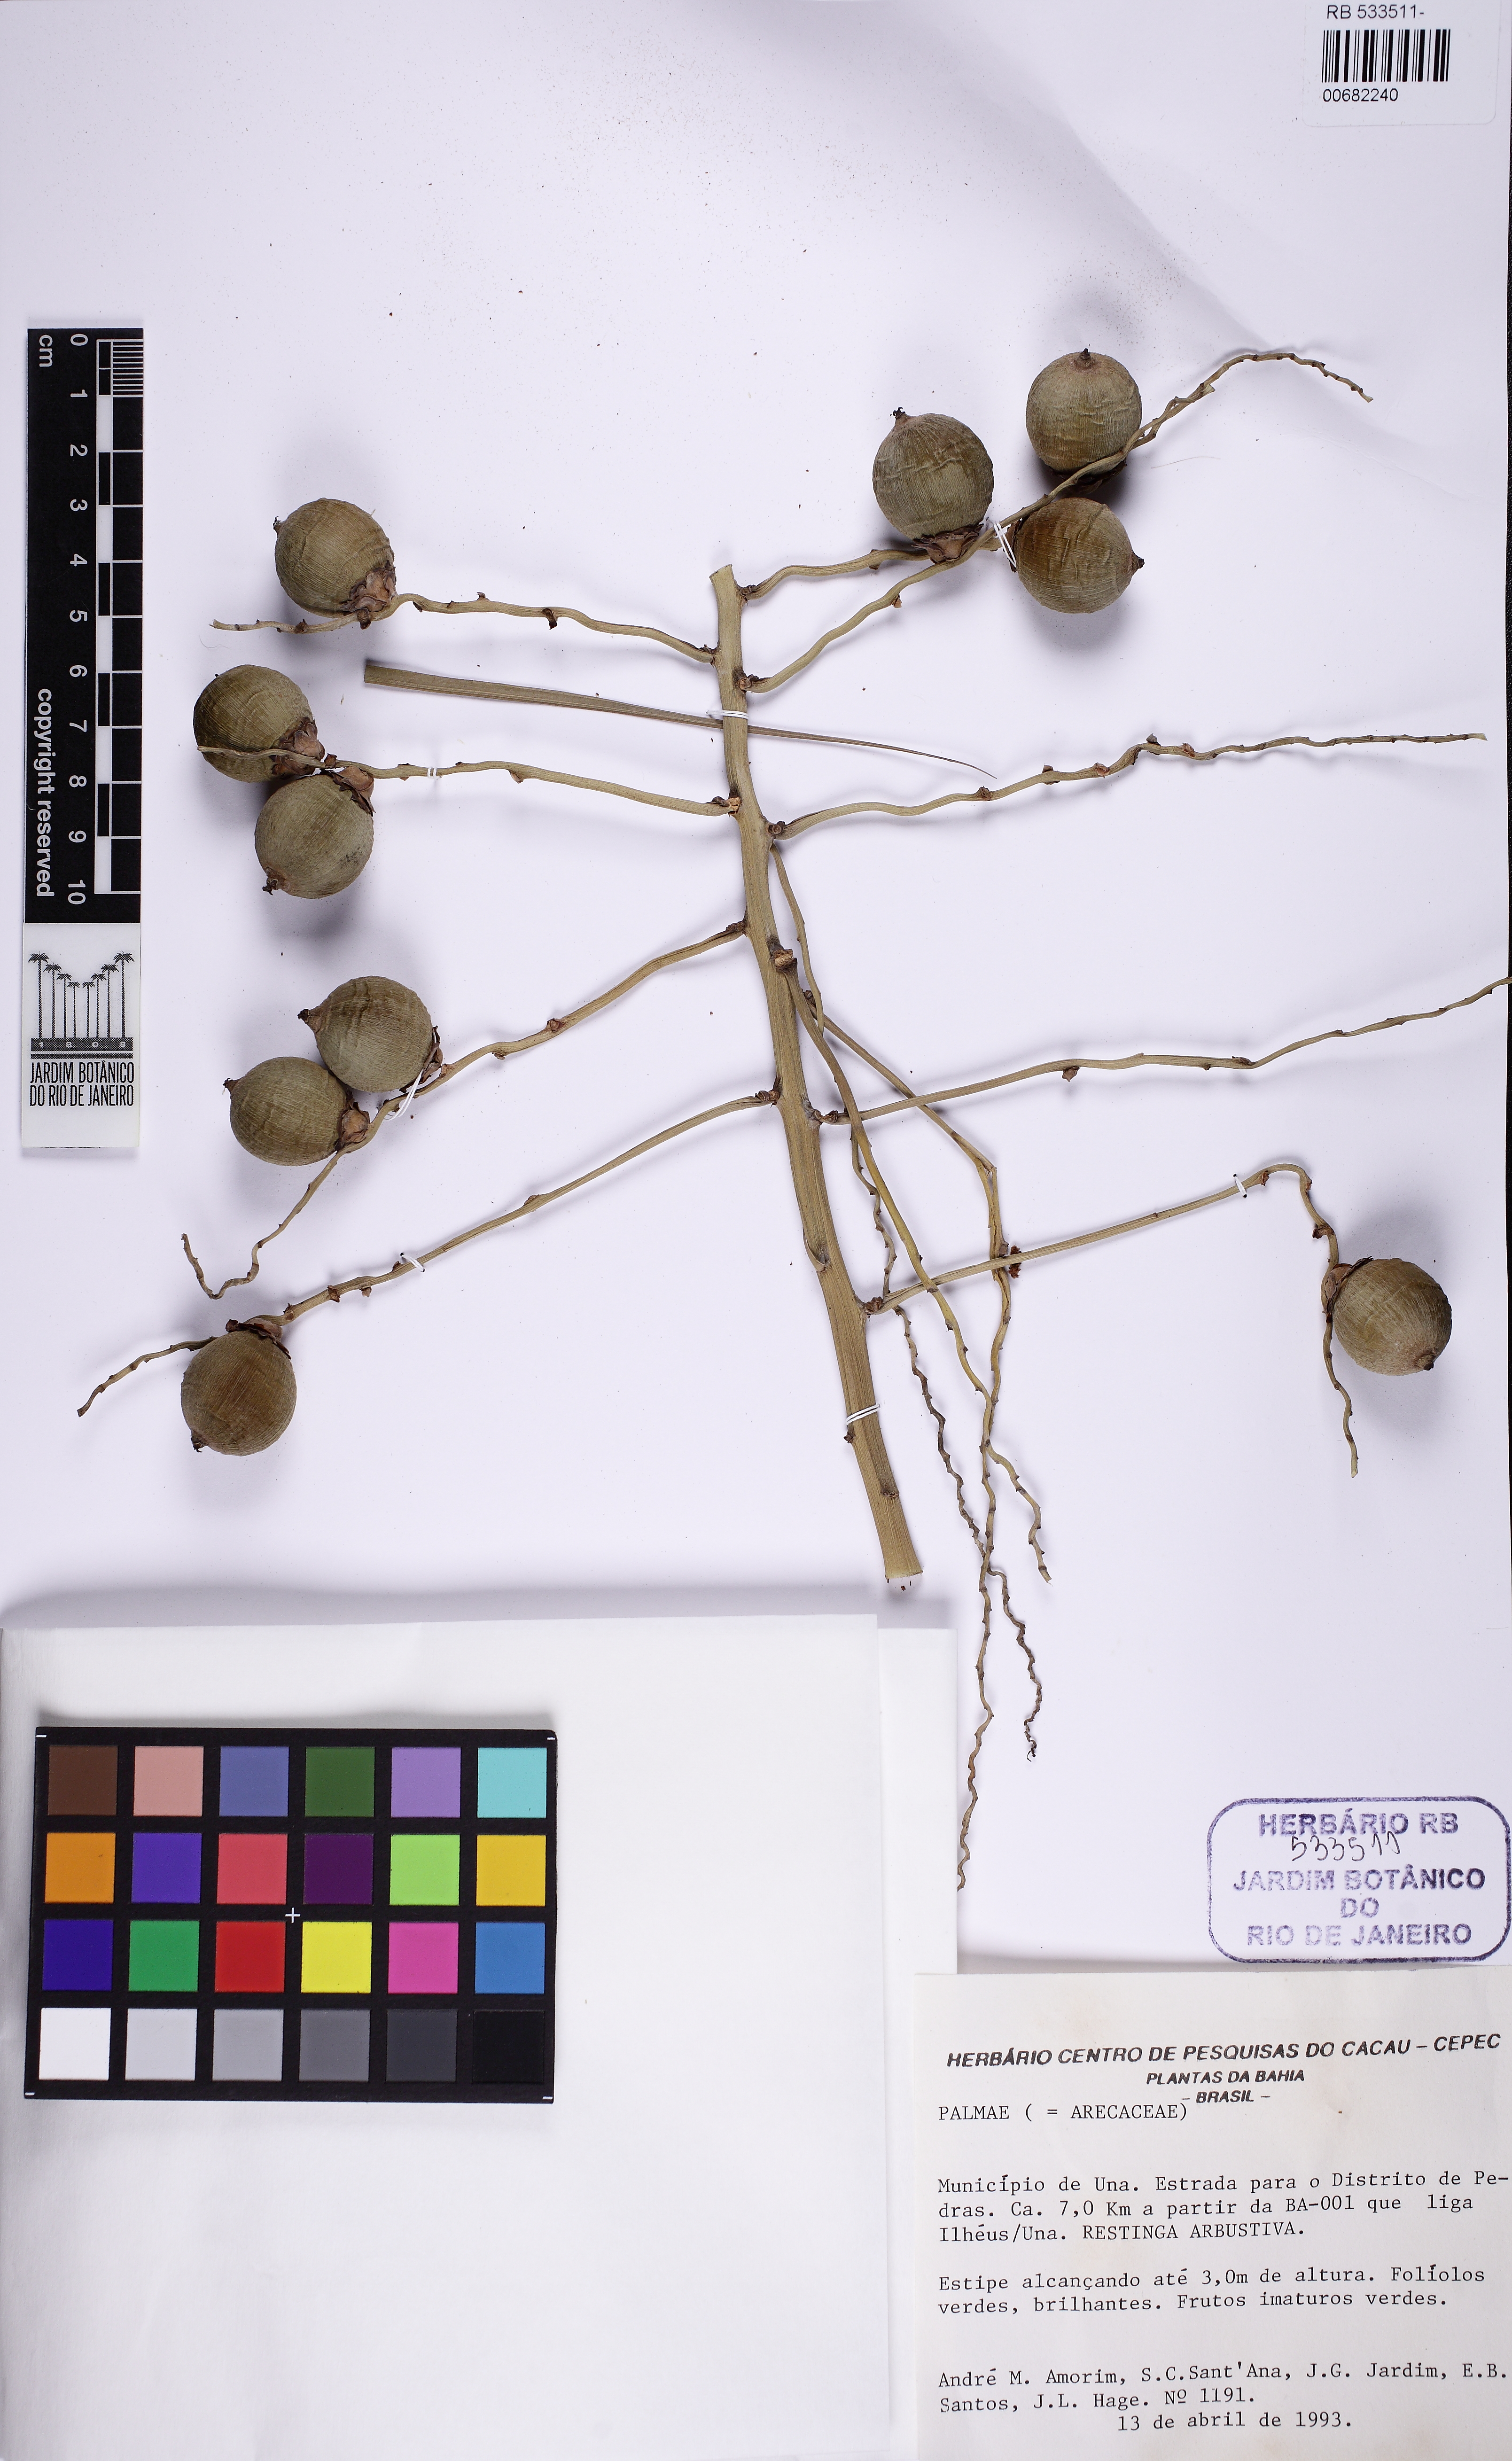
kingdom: Plantae
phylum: Tracheophyta
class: Liliopsida
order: Arecales
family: Arecaceae
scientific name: Arecaceae
